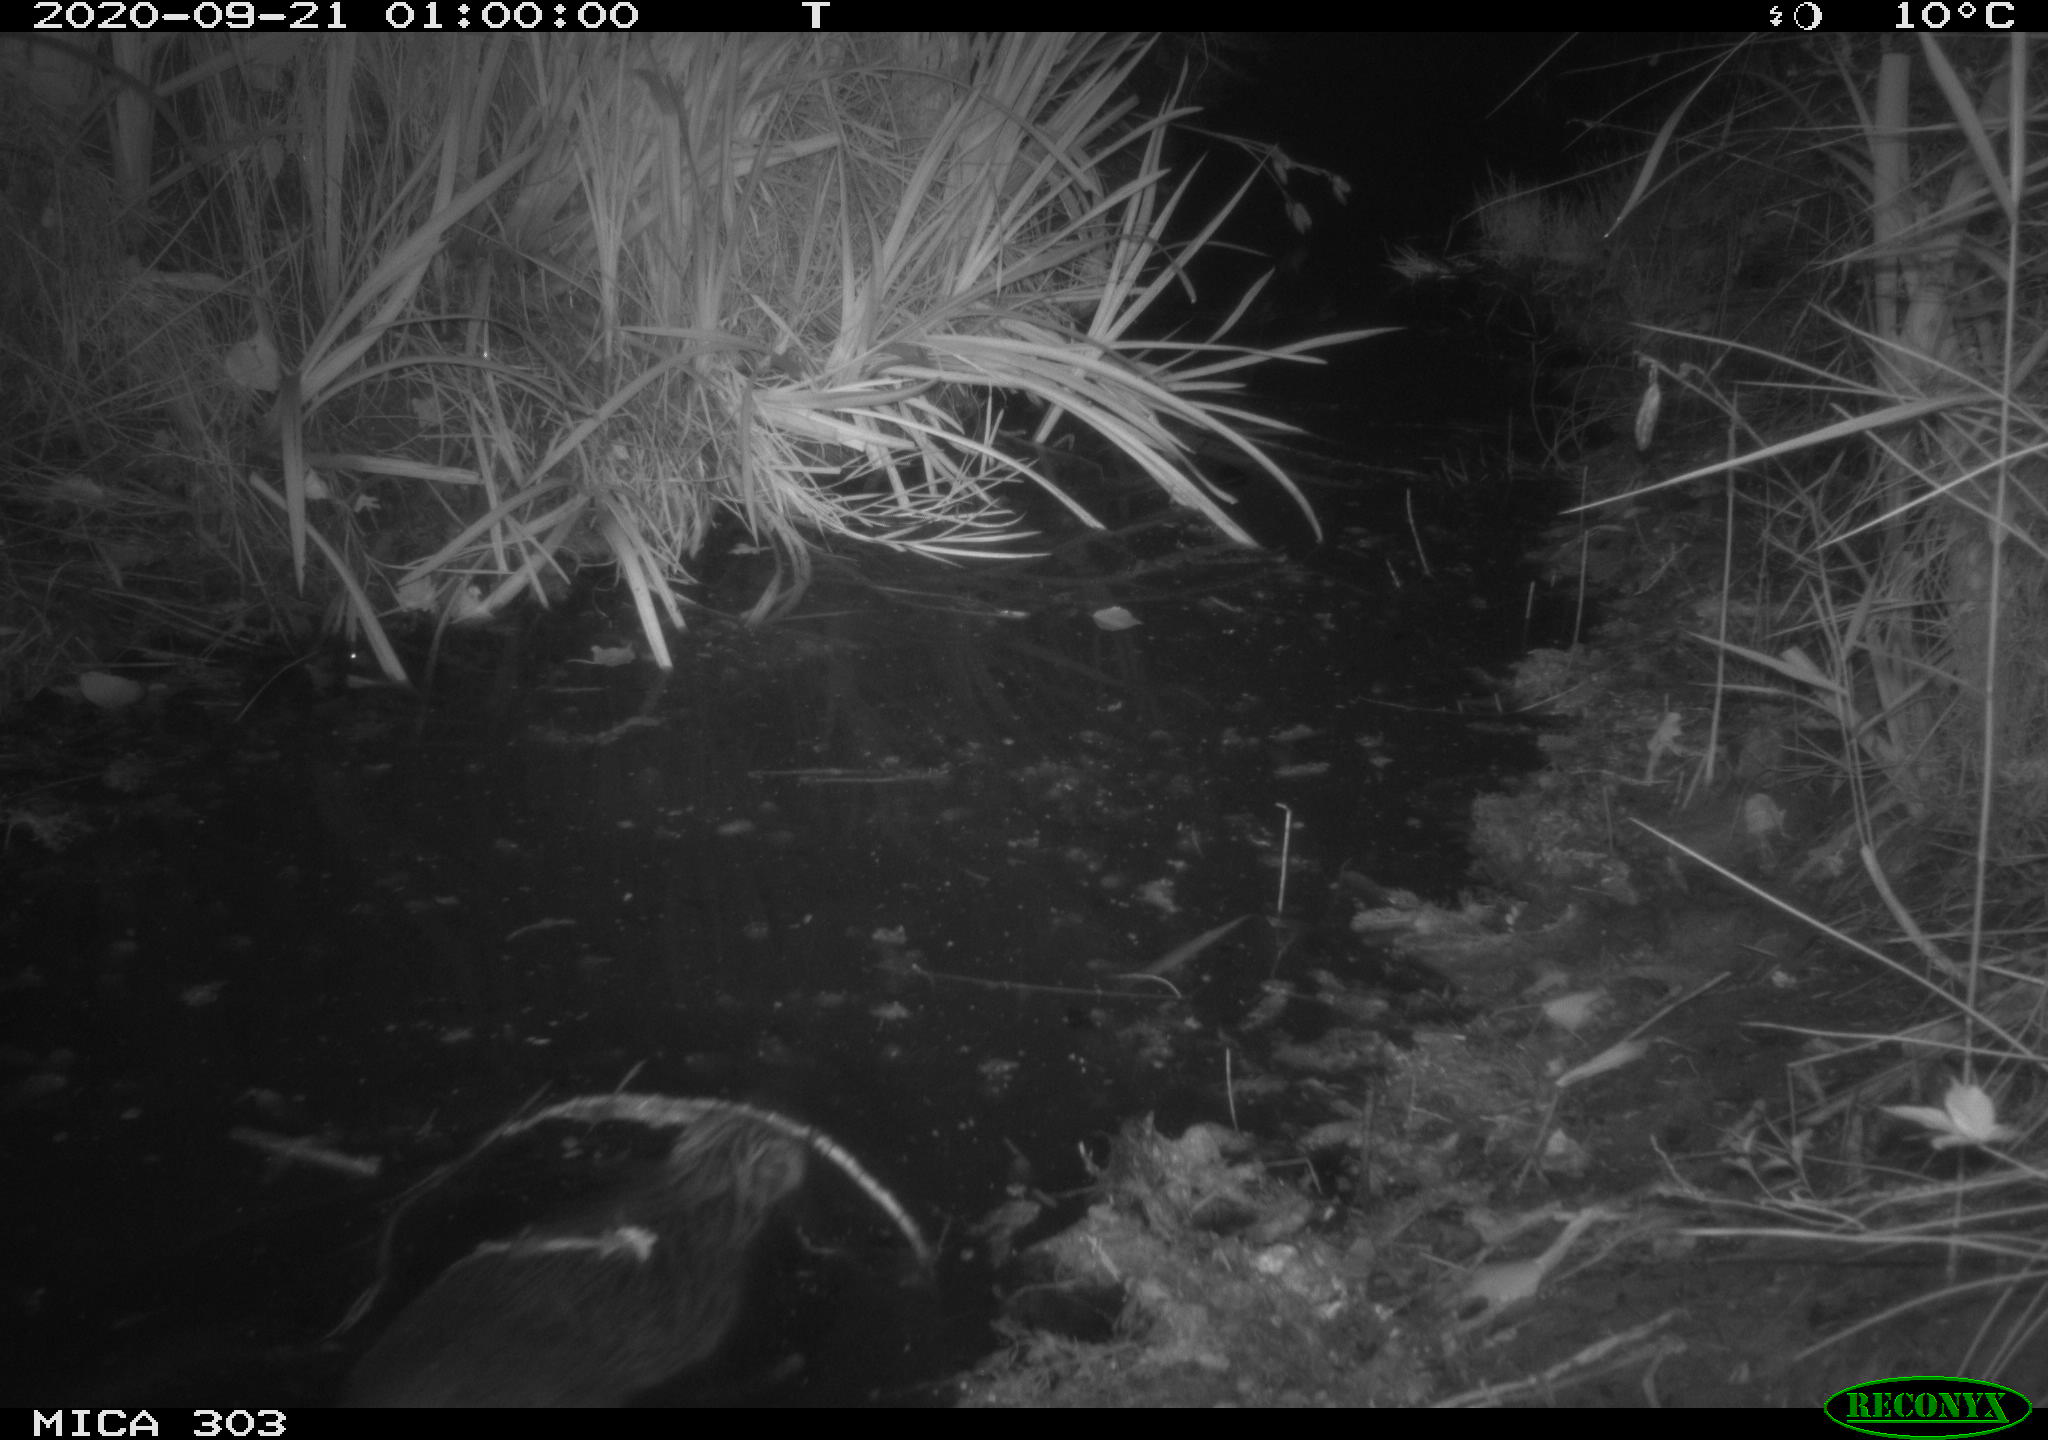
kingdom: Animalia
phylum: Chordata
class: Mammalia
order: Rodentia
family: Castoridae
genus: Castor
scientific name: Castor fiber
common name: Eurasian beaver
